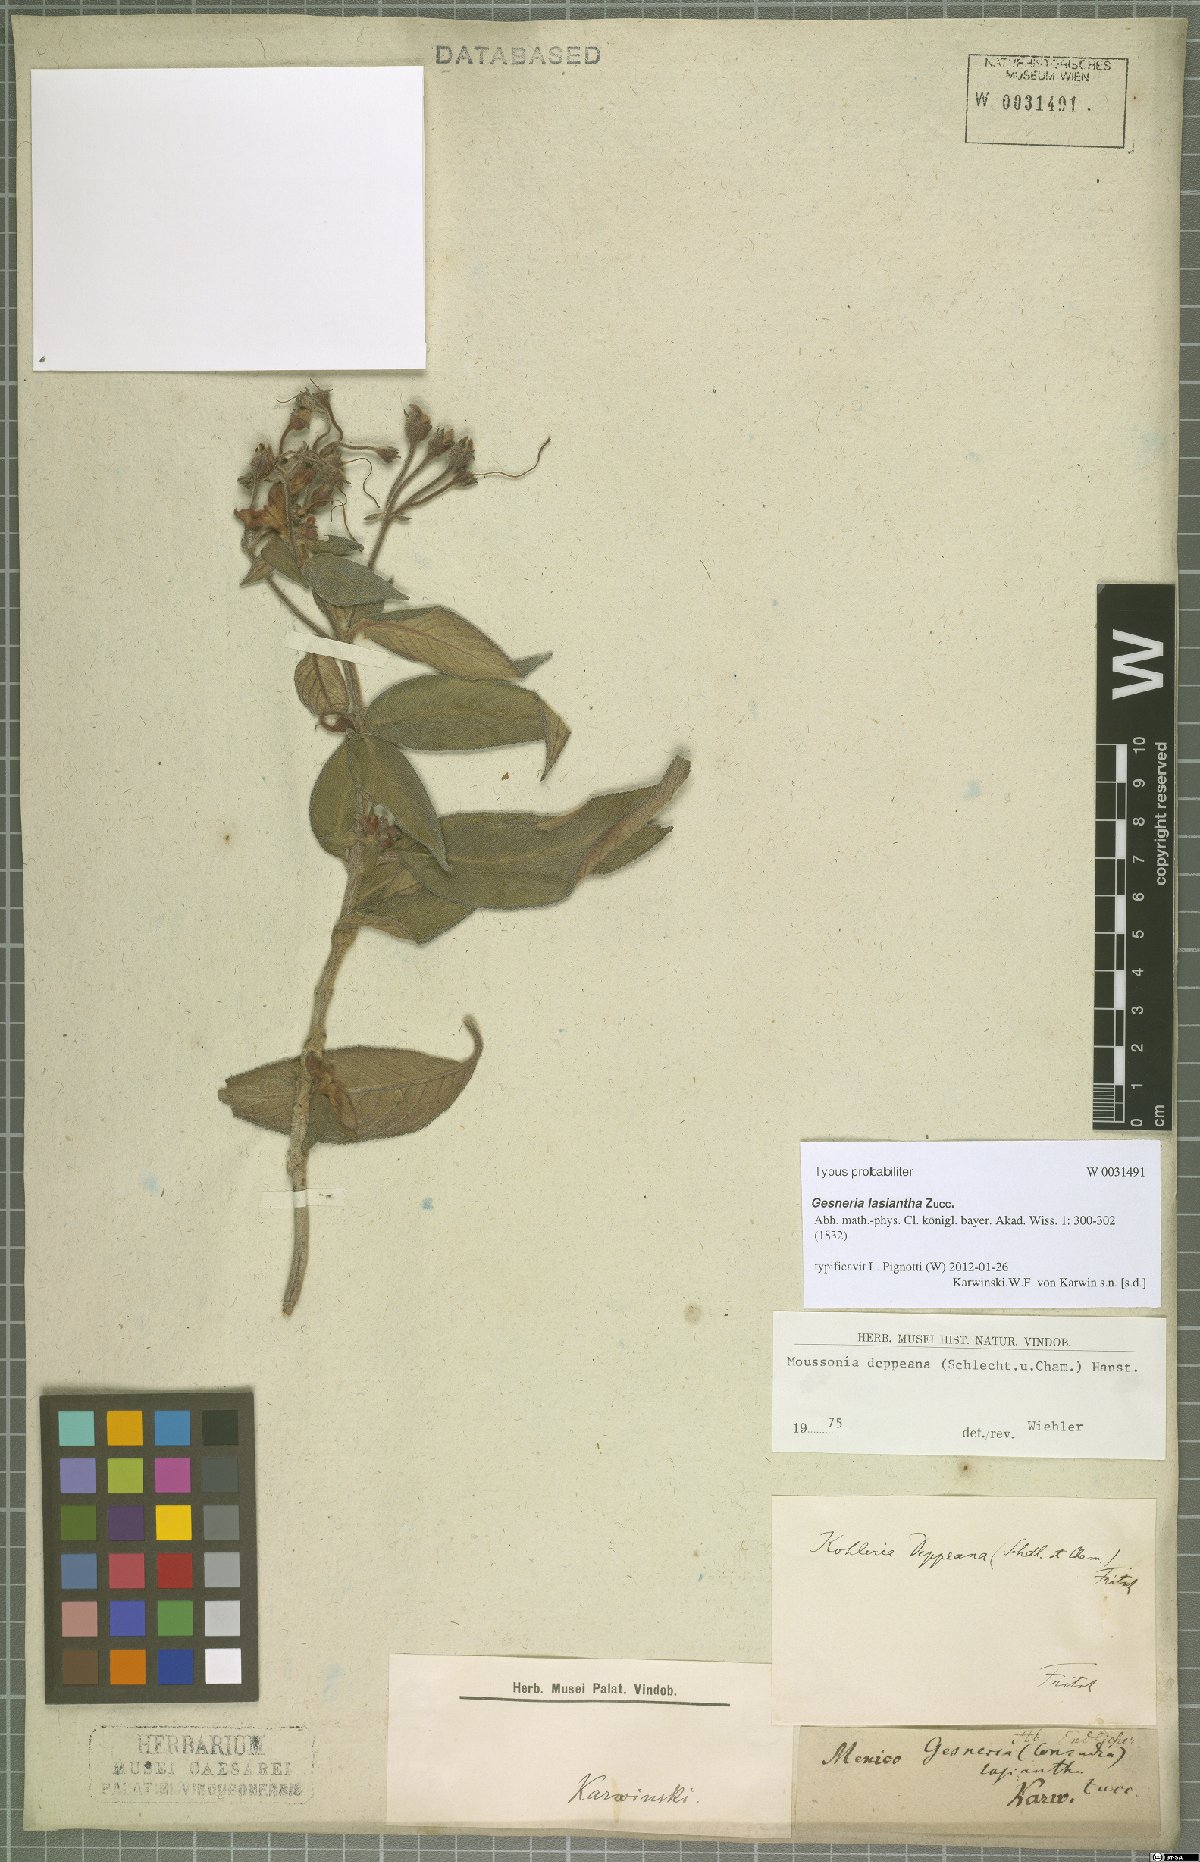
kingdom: Plantae
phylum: Tracheophyta
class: Magnoliopsida
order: Lamiales
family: Gesneriaceae
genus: Moussonia
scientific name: Moussonia deppeana
